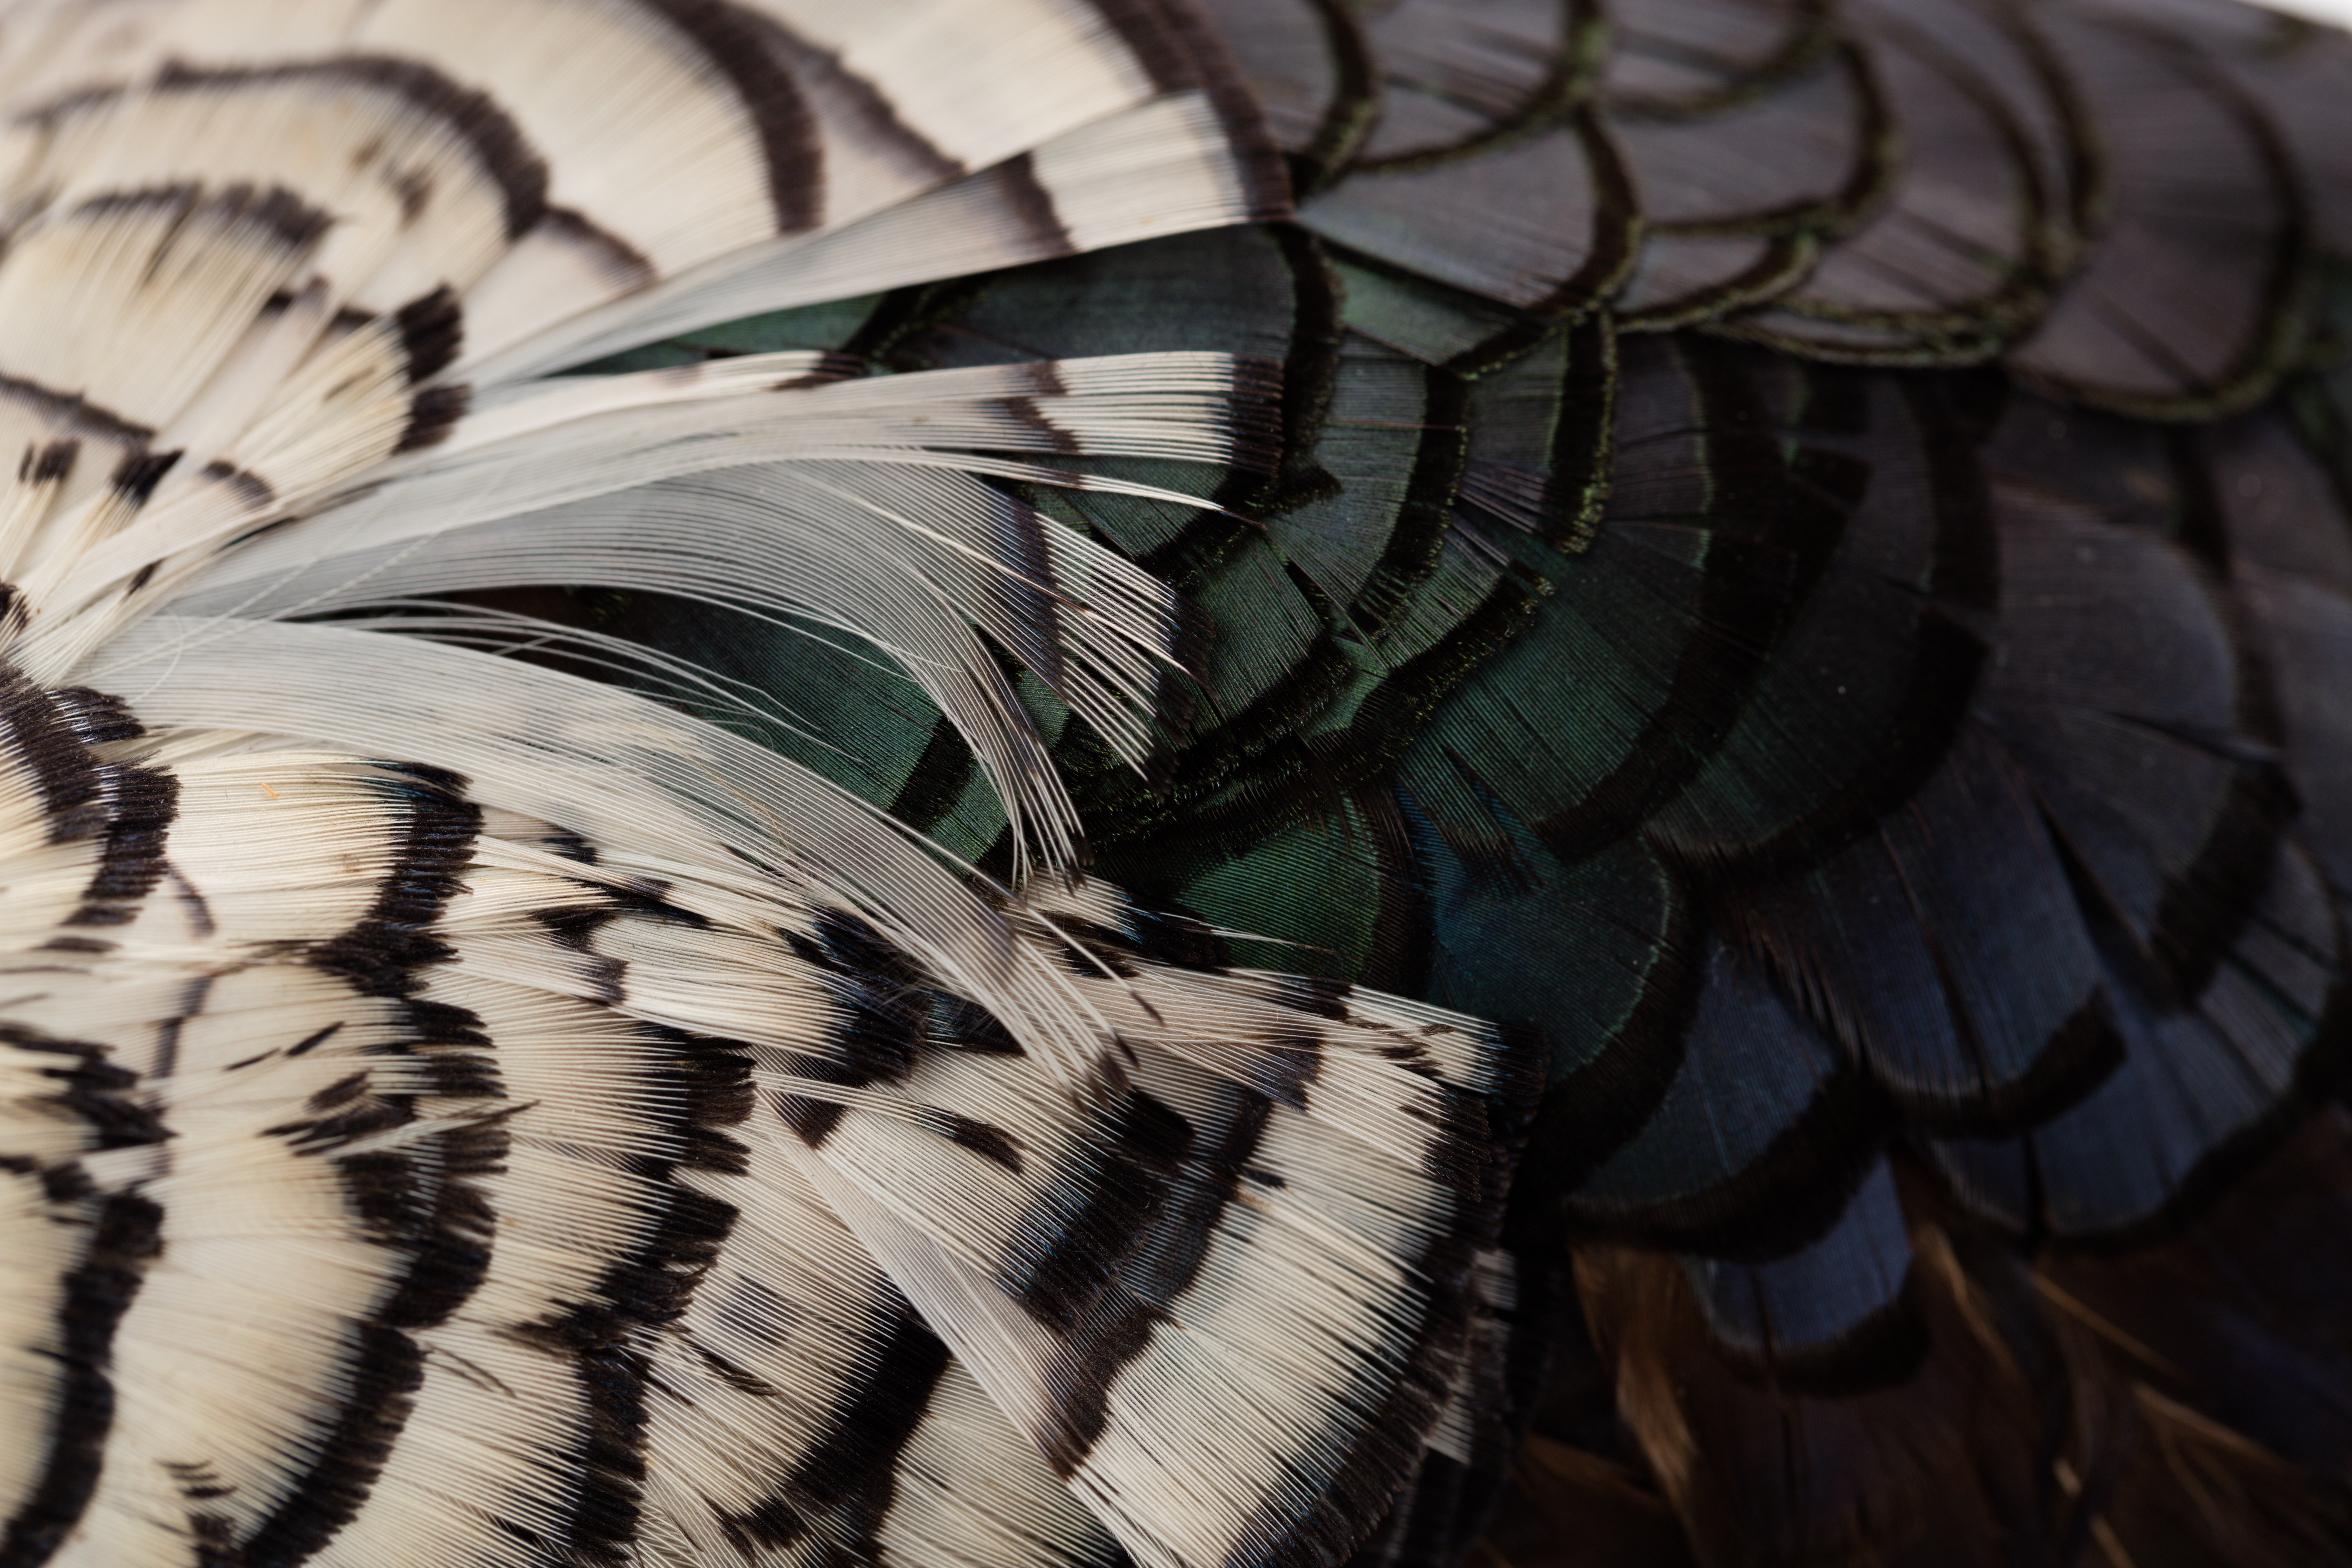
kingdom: Animalia
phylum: Chordata
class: Aves
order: Galliformes
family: Phasianidae
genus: Chrysolophus
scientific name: Chrysolophus amherstiae
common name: Lady amherst's pheasant
